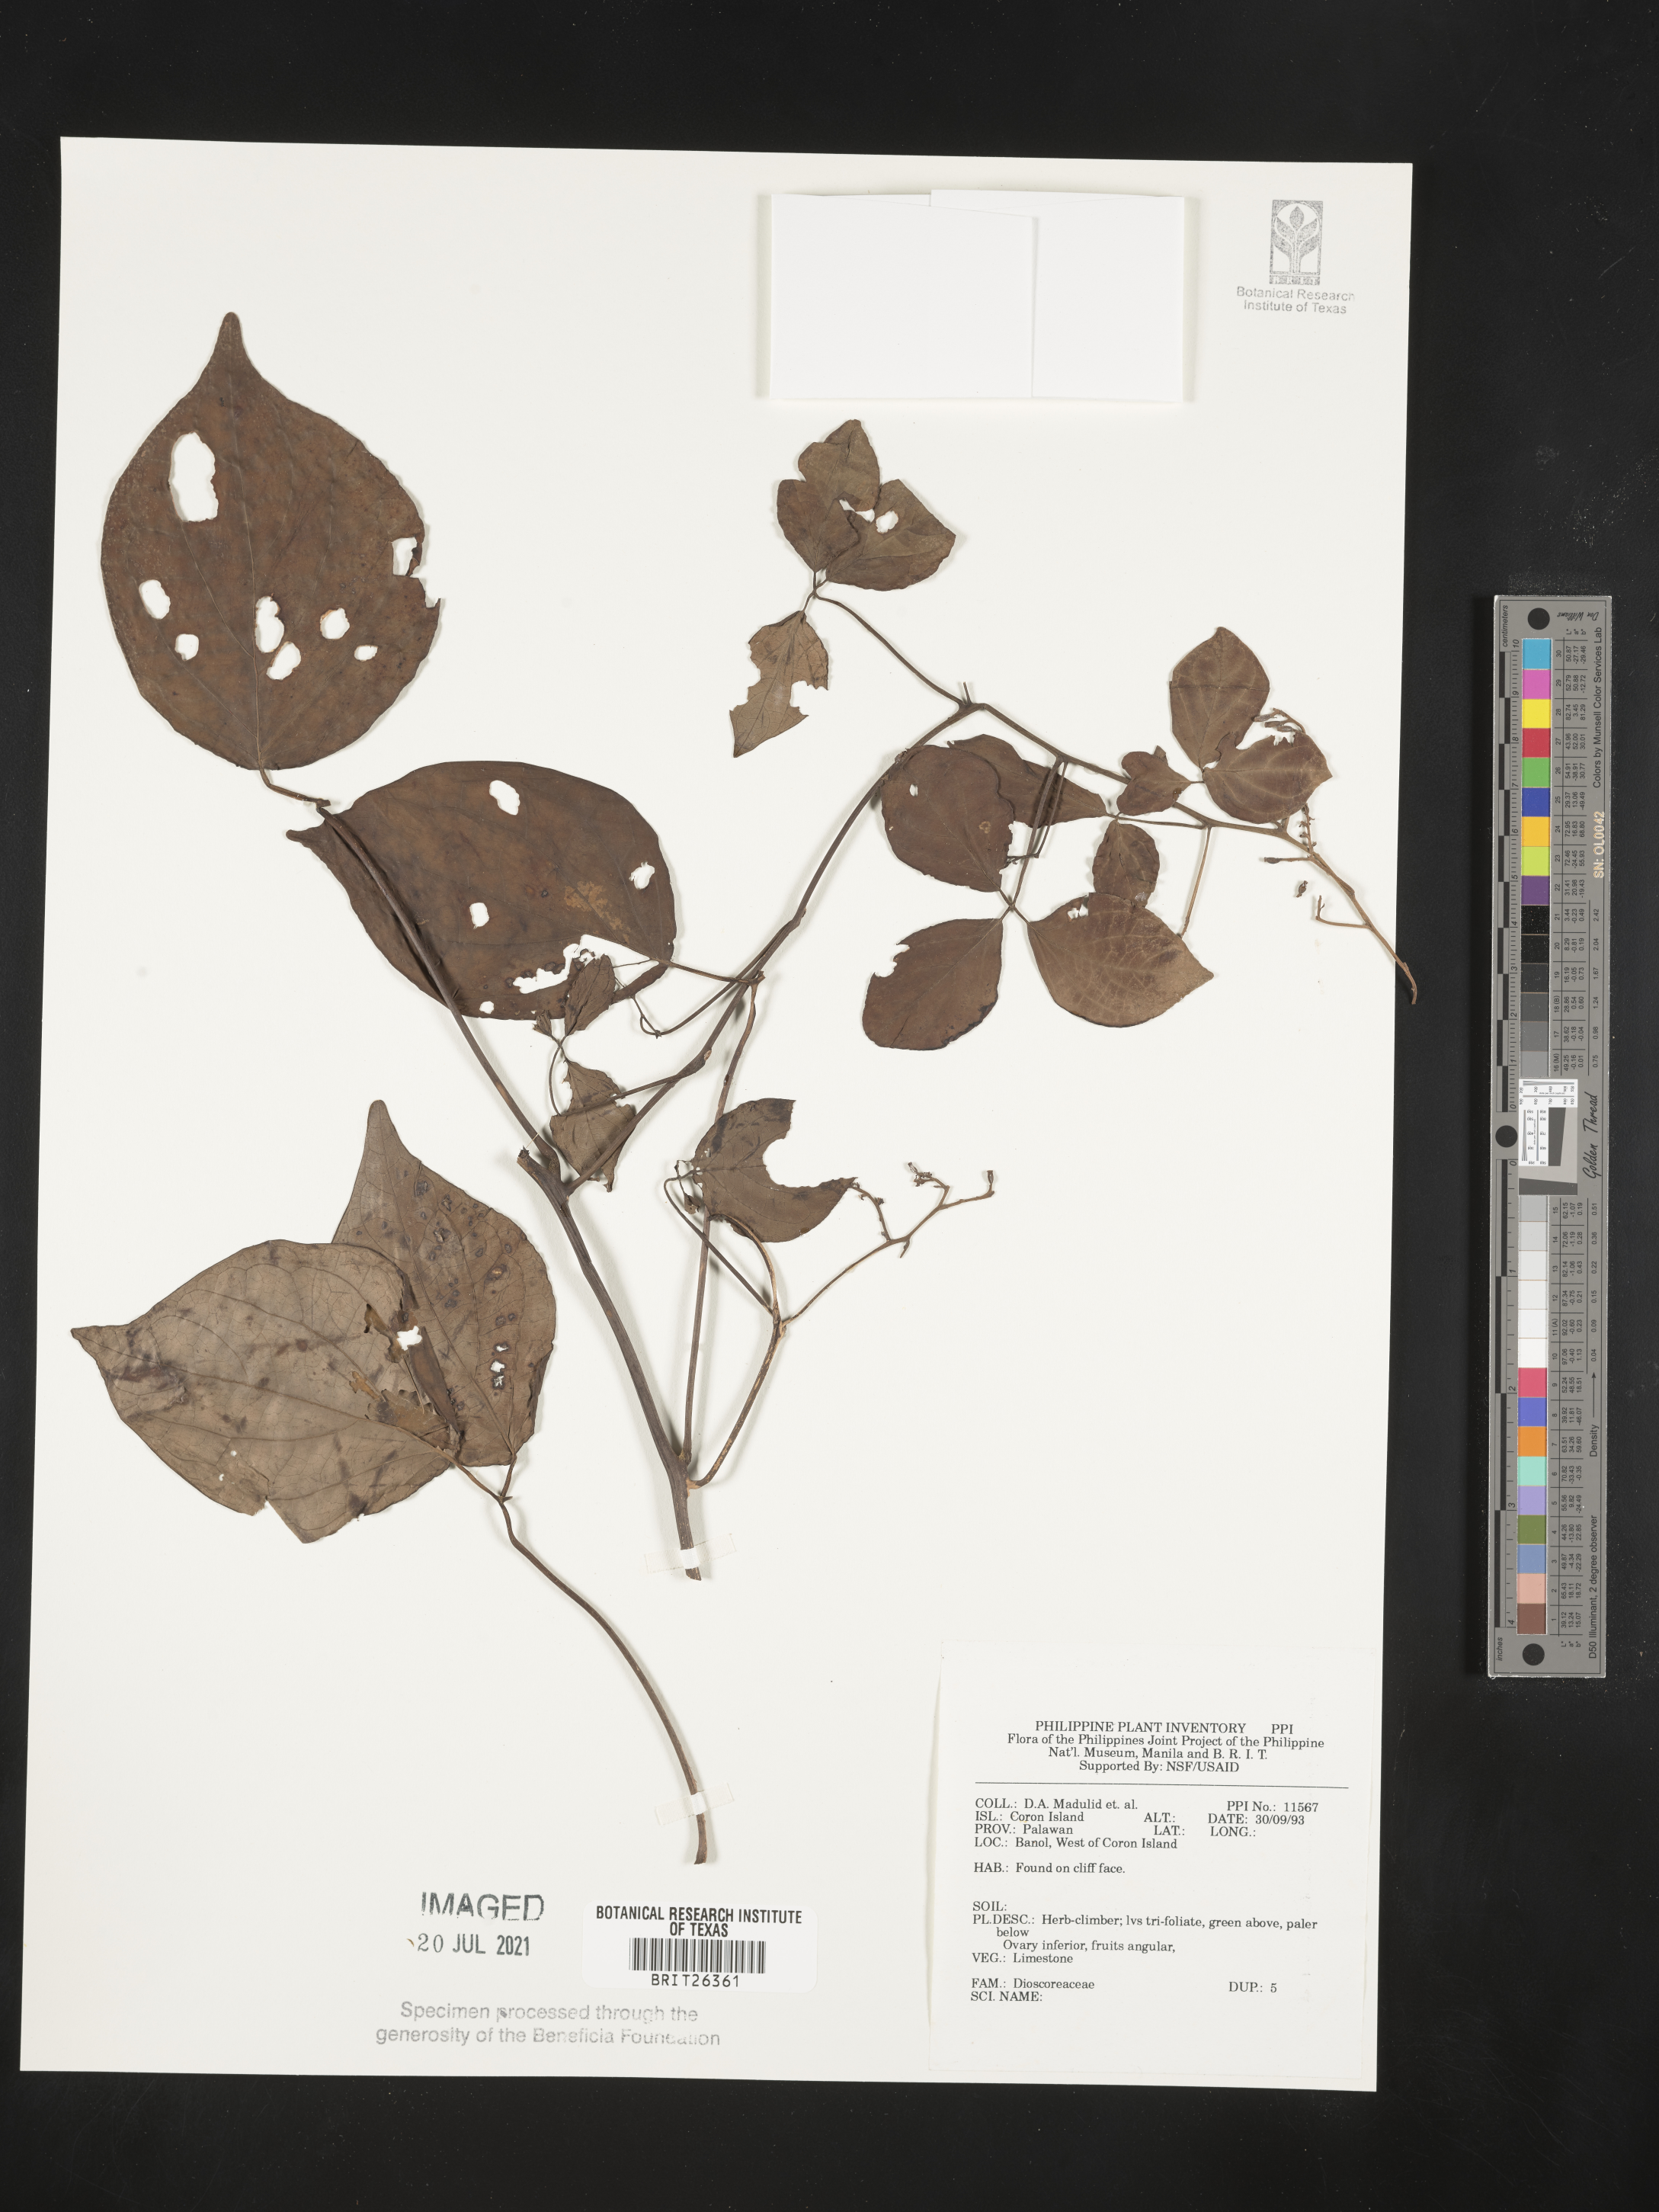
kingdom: Plantae
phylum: Tracheophyta
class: Liliopsida
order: Dioscoreales
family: Dioscoreaceae
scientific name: Dioscoreaceae
